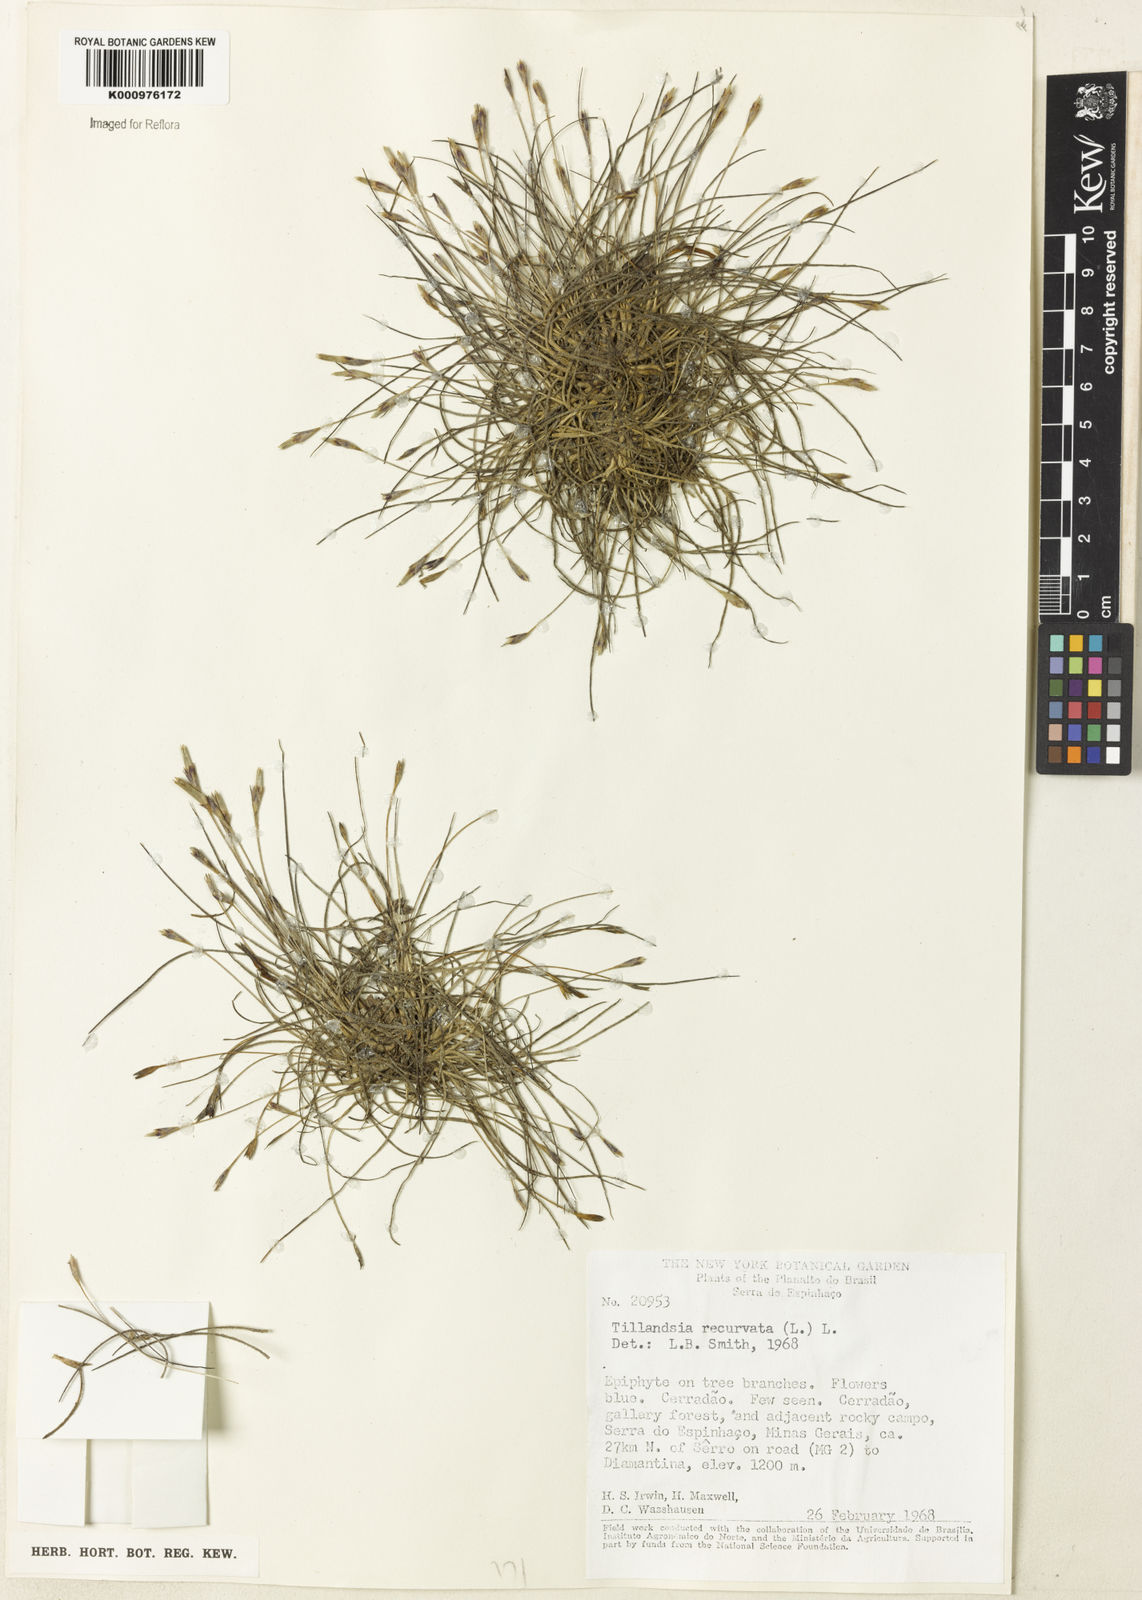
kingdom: Plantae
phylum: Tracheophyta
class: Liliopsida
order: Poales
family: Bromeliaceae
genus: Tillandsia
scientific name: Tillandsia recurvata
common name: Small ballmoss
